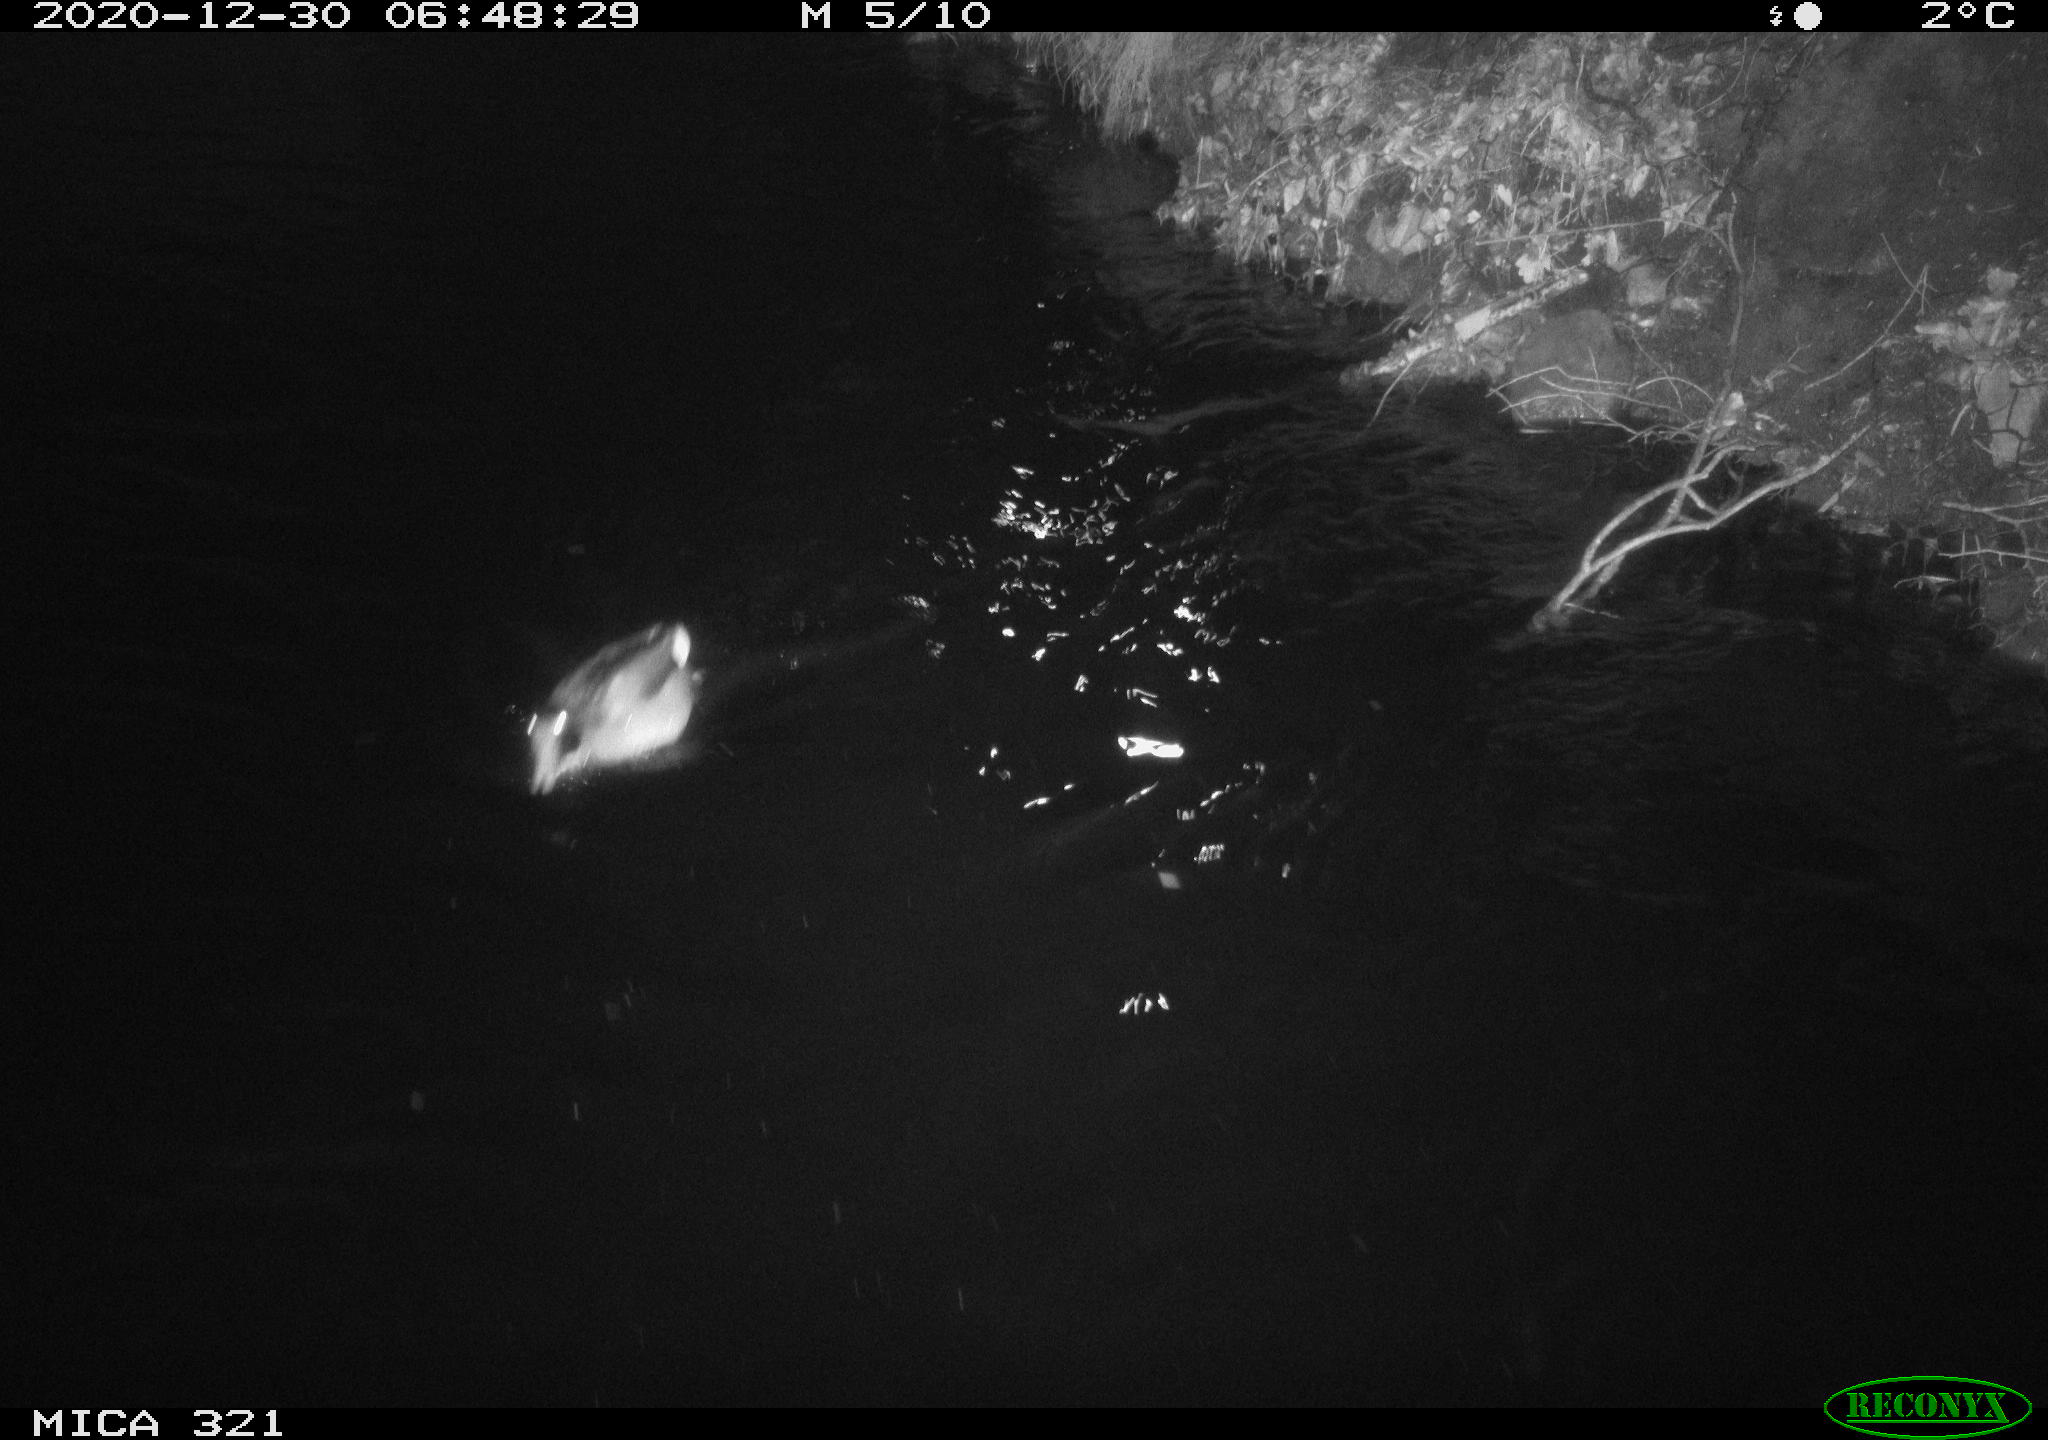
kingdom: Animalia
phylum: Chordata
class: Aves
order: Anseriformes
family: Anatidae
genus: Anas
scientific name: Anas platyrhynchos
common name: Mallard
